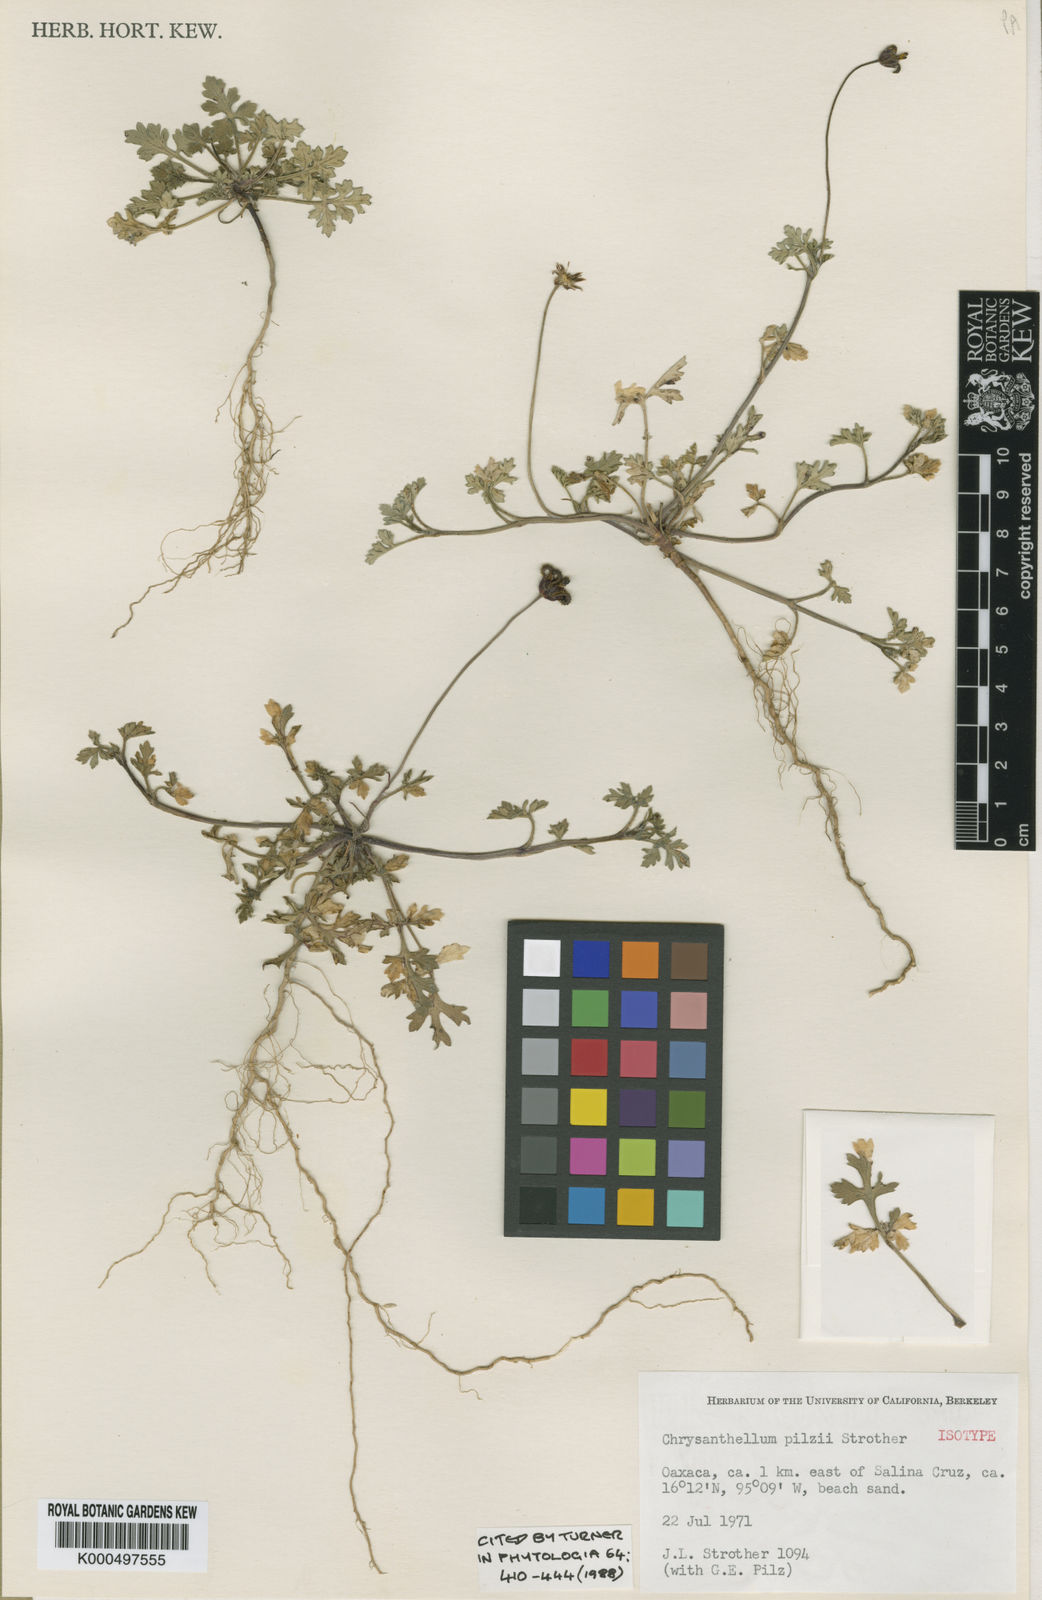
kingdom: Plantae
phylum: Tracheophyta
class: Magnoliopsida
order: Asterales
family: Asteraceae
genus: Chrysanthellum
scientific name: Chrysanthellum pilzii
